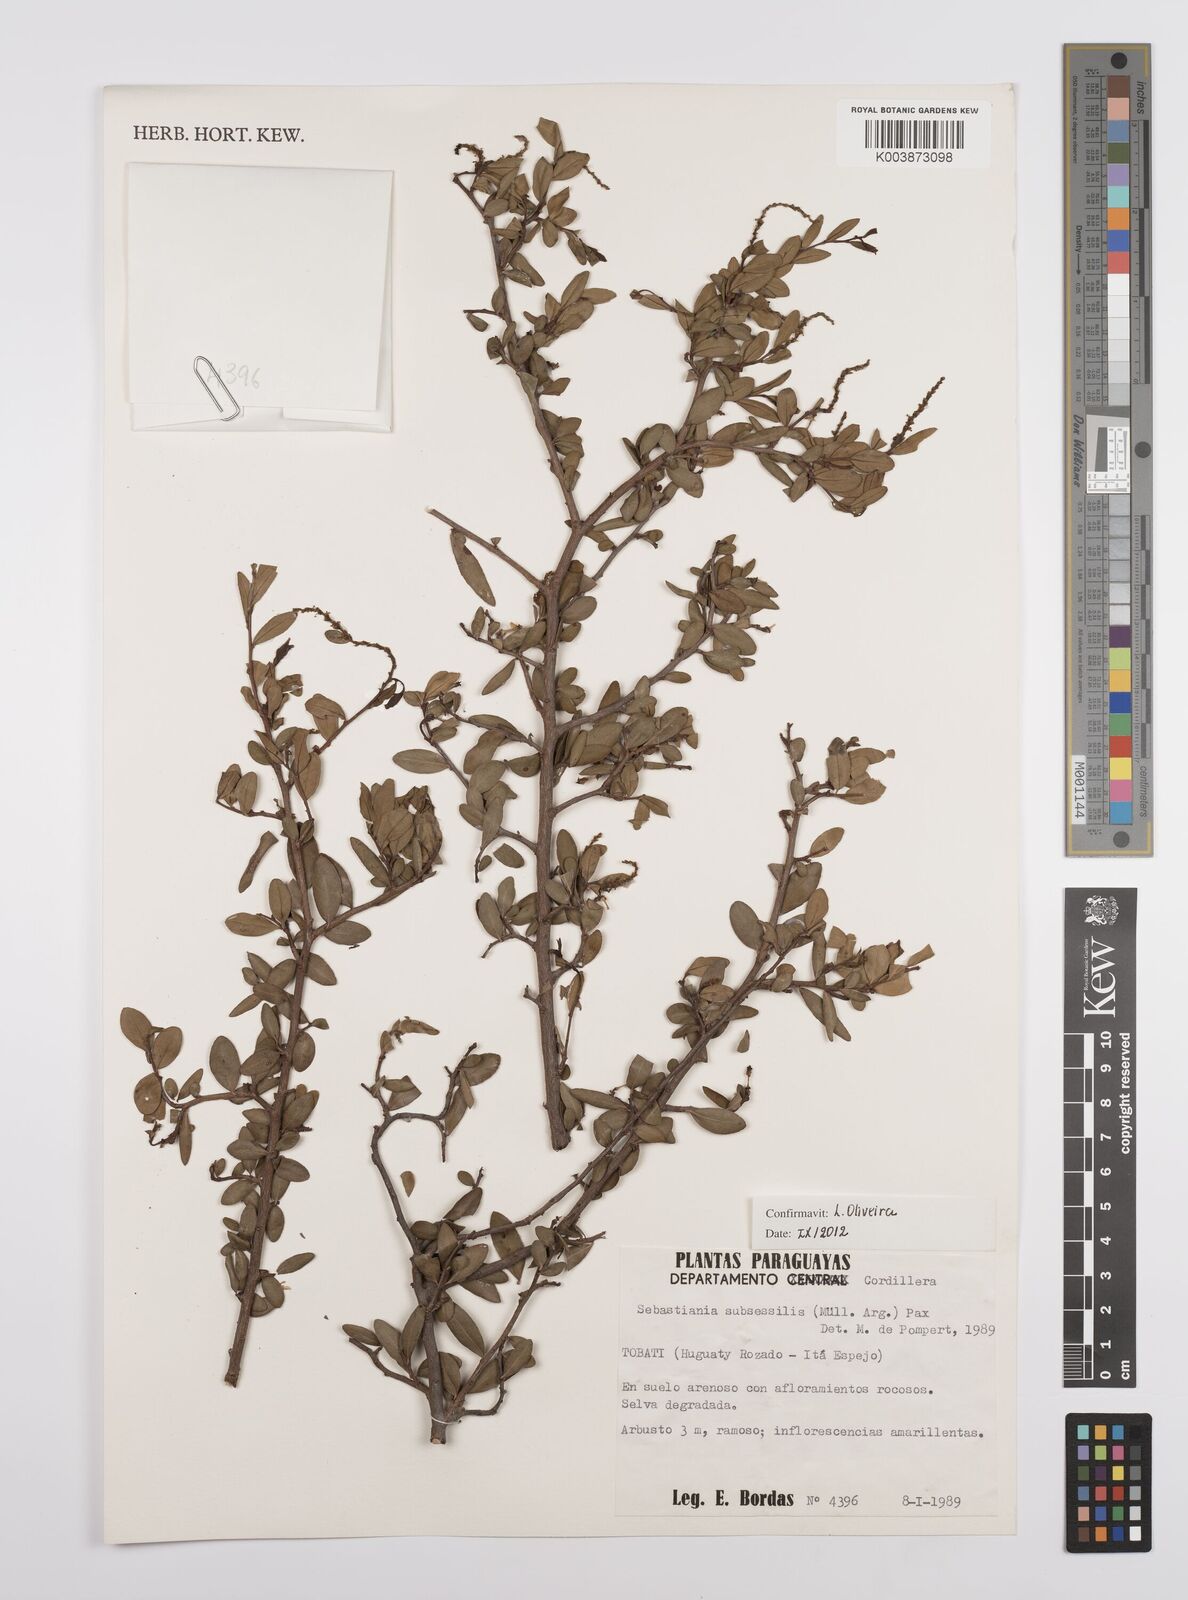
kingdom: Plantae
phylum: Tracheophyta
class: Magnoliopsida
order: Malpighiales
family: Euphorbiaceae
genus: Sebastiania
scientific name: Sebastiania subsessilis
